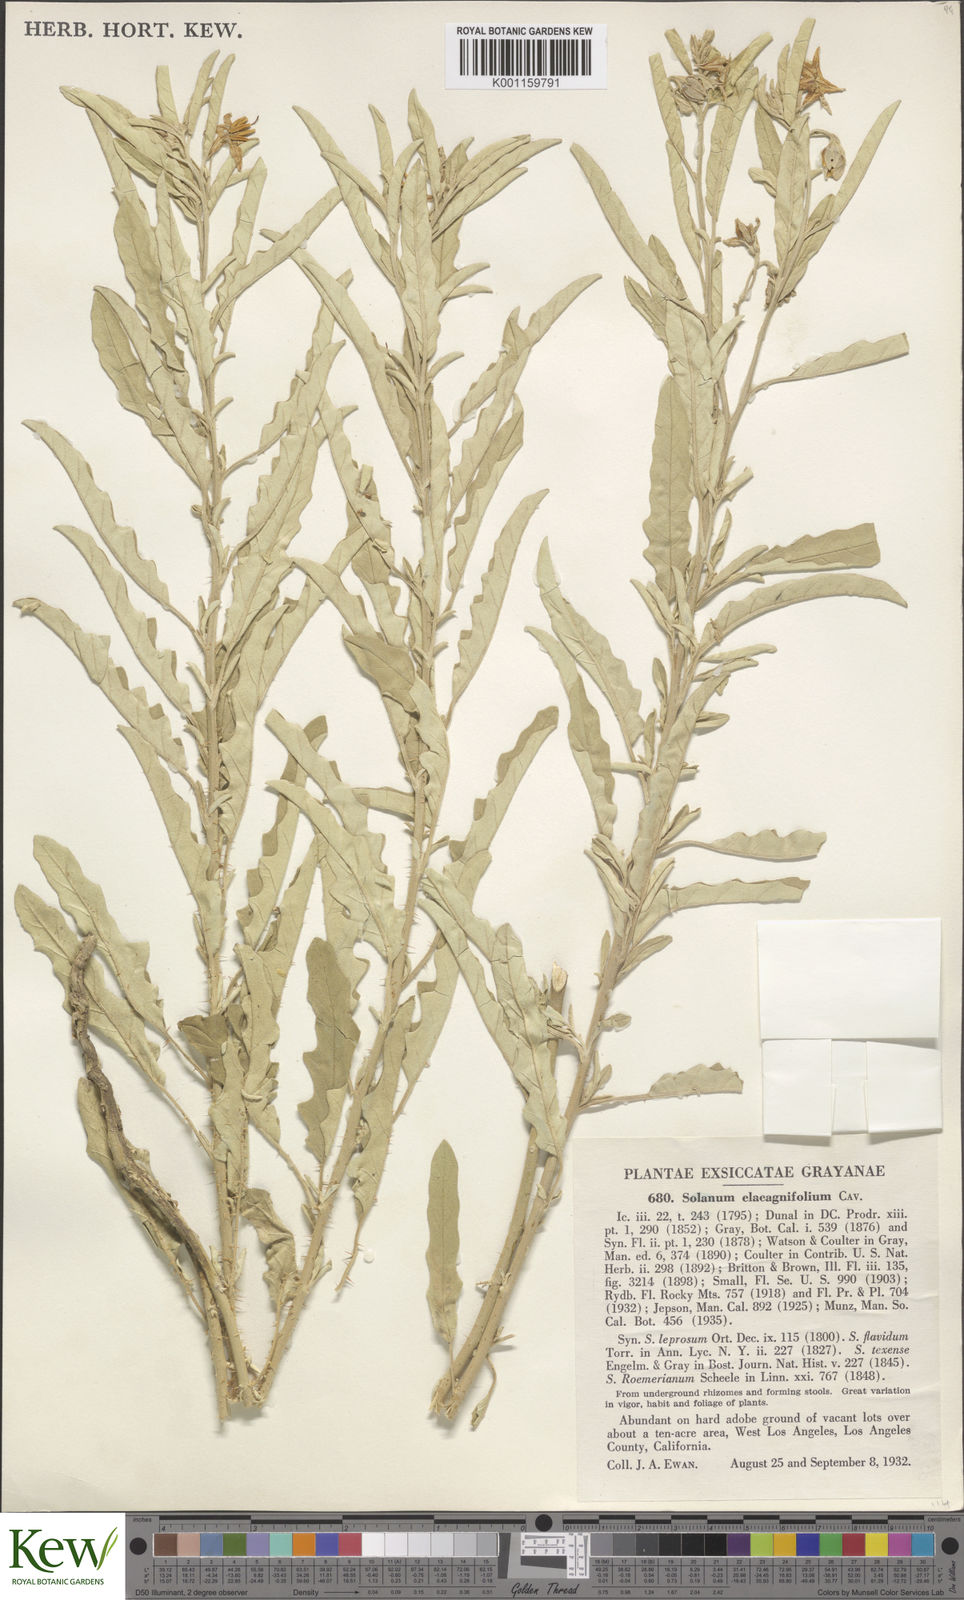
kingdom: Plantae
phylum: Tracheophyta
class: Magnoliopsida
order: Solanales
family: Solanaceae
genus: Solanum
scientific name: Solanum
